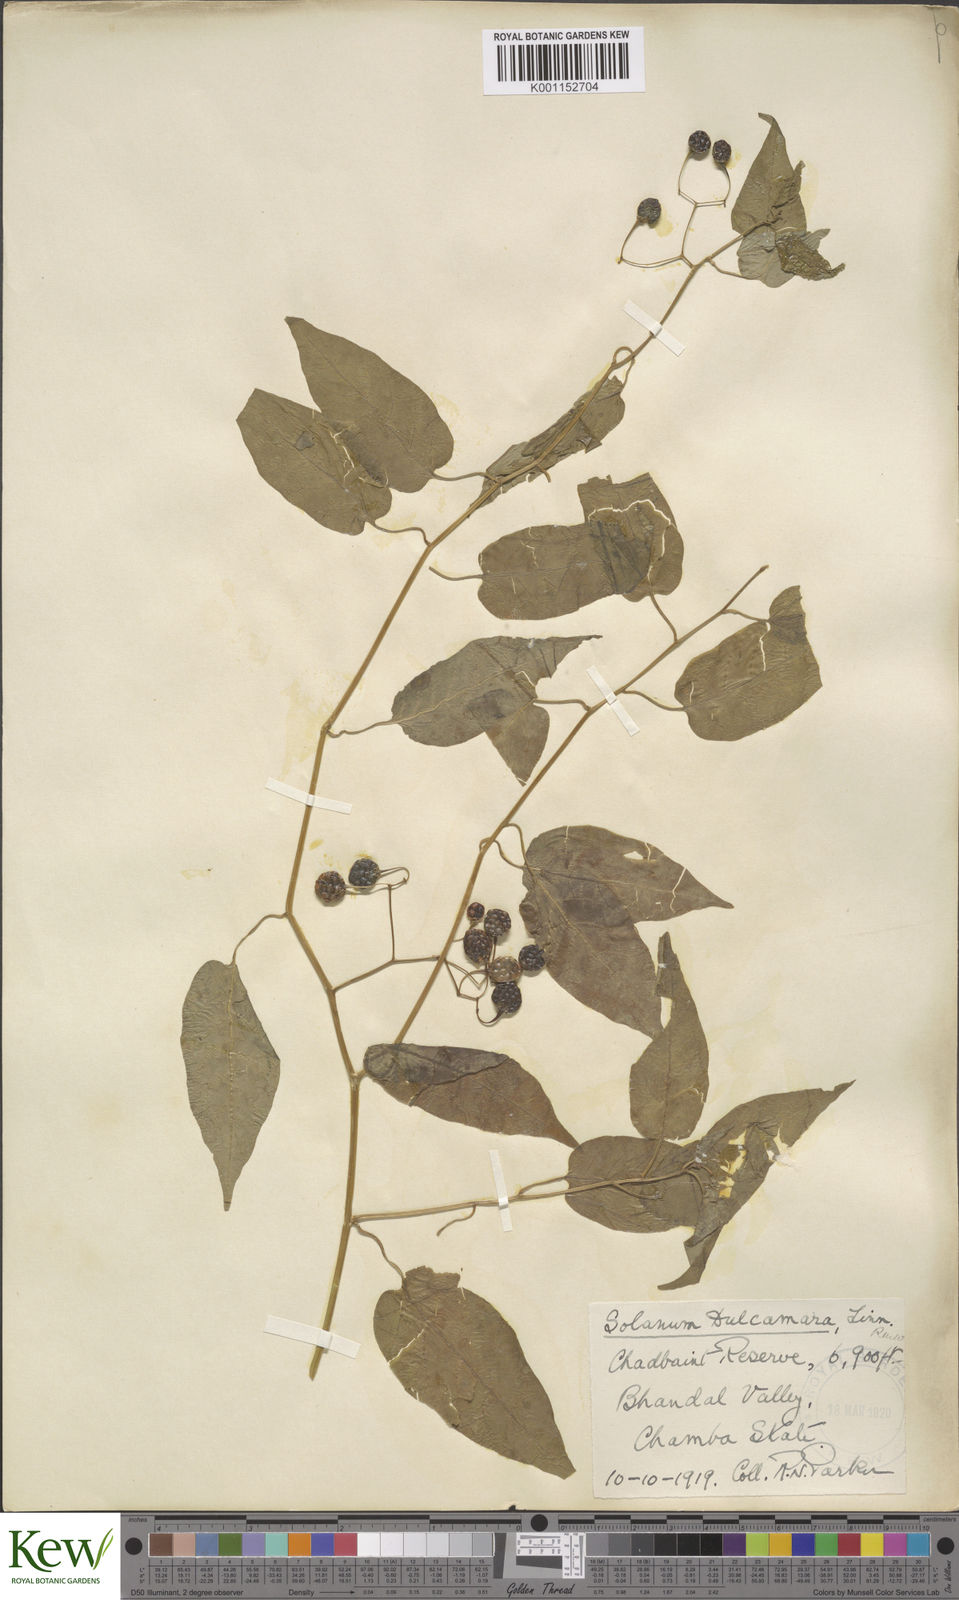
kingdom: Plantae
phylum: Tracheophyta
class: Magnoliopsida
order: Solanales
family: Solanaceae
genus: Solanum
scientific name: Solanum dulcamara
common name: Climbing nightshade
